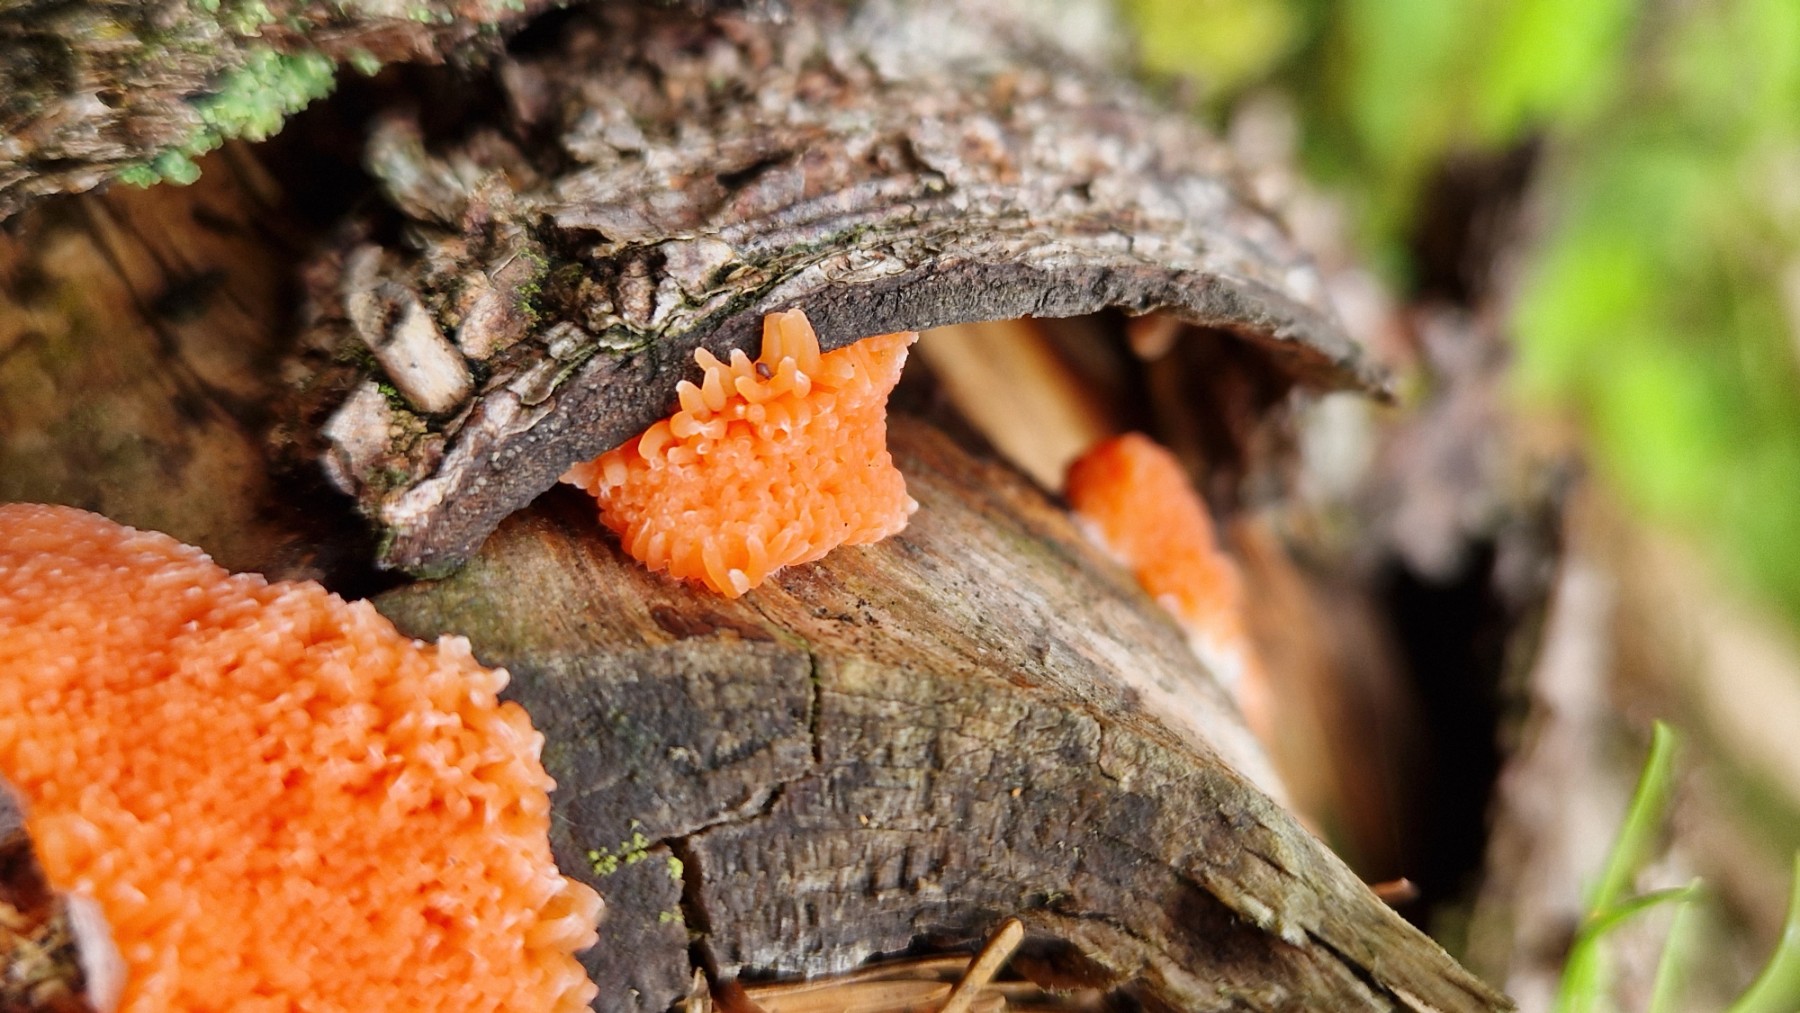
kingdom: Protozoa
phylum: Mycetozoa
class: Myxomycetes
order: Cribrariales
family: Tubiferaceae
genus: Tubifera
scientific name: Tubifera
